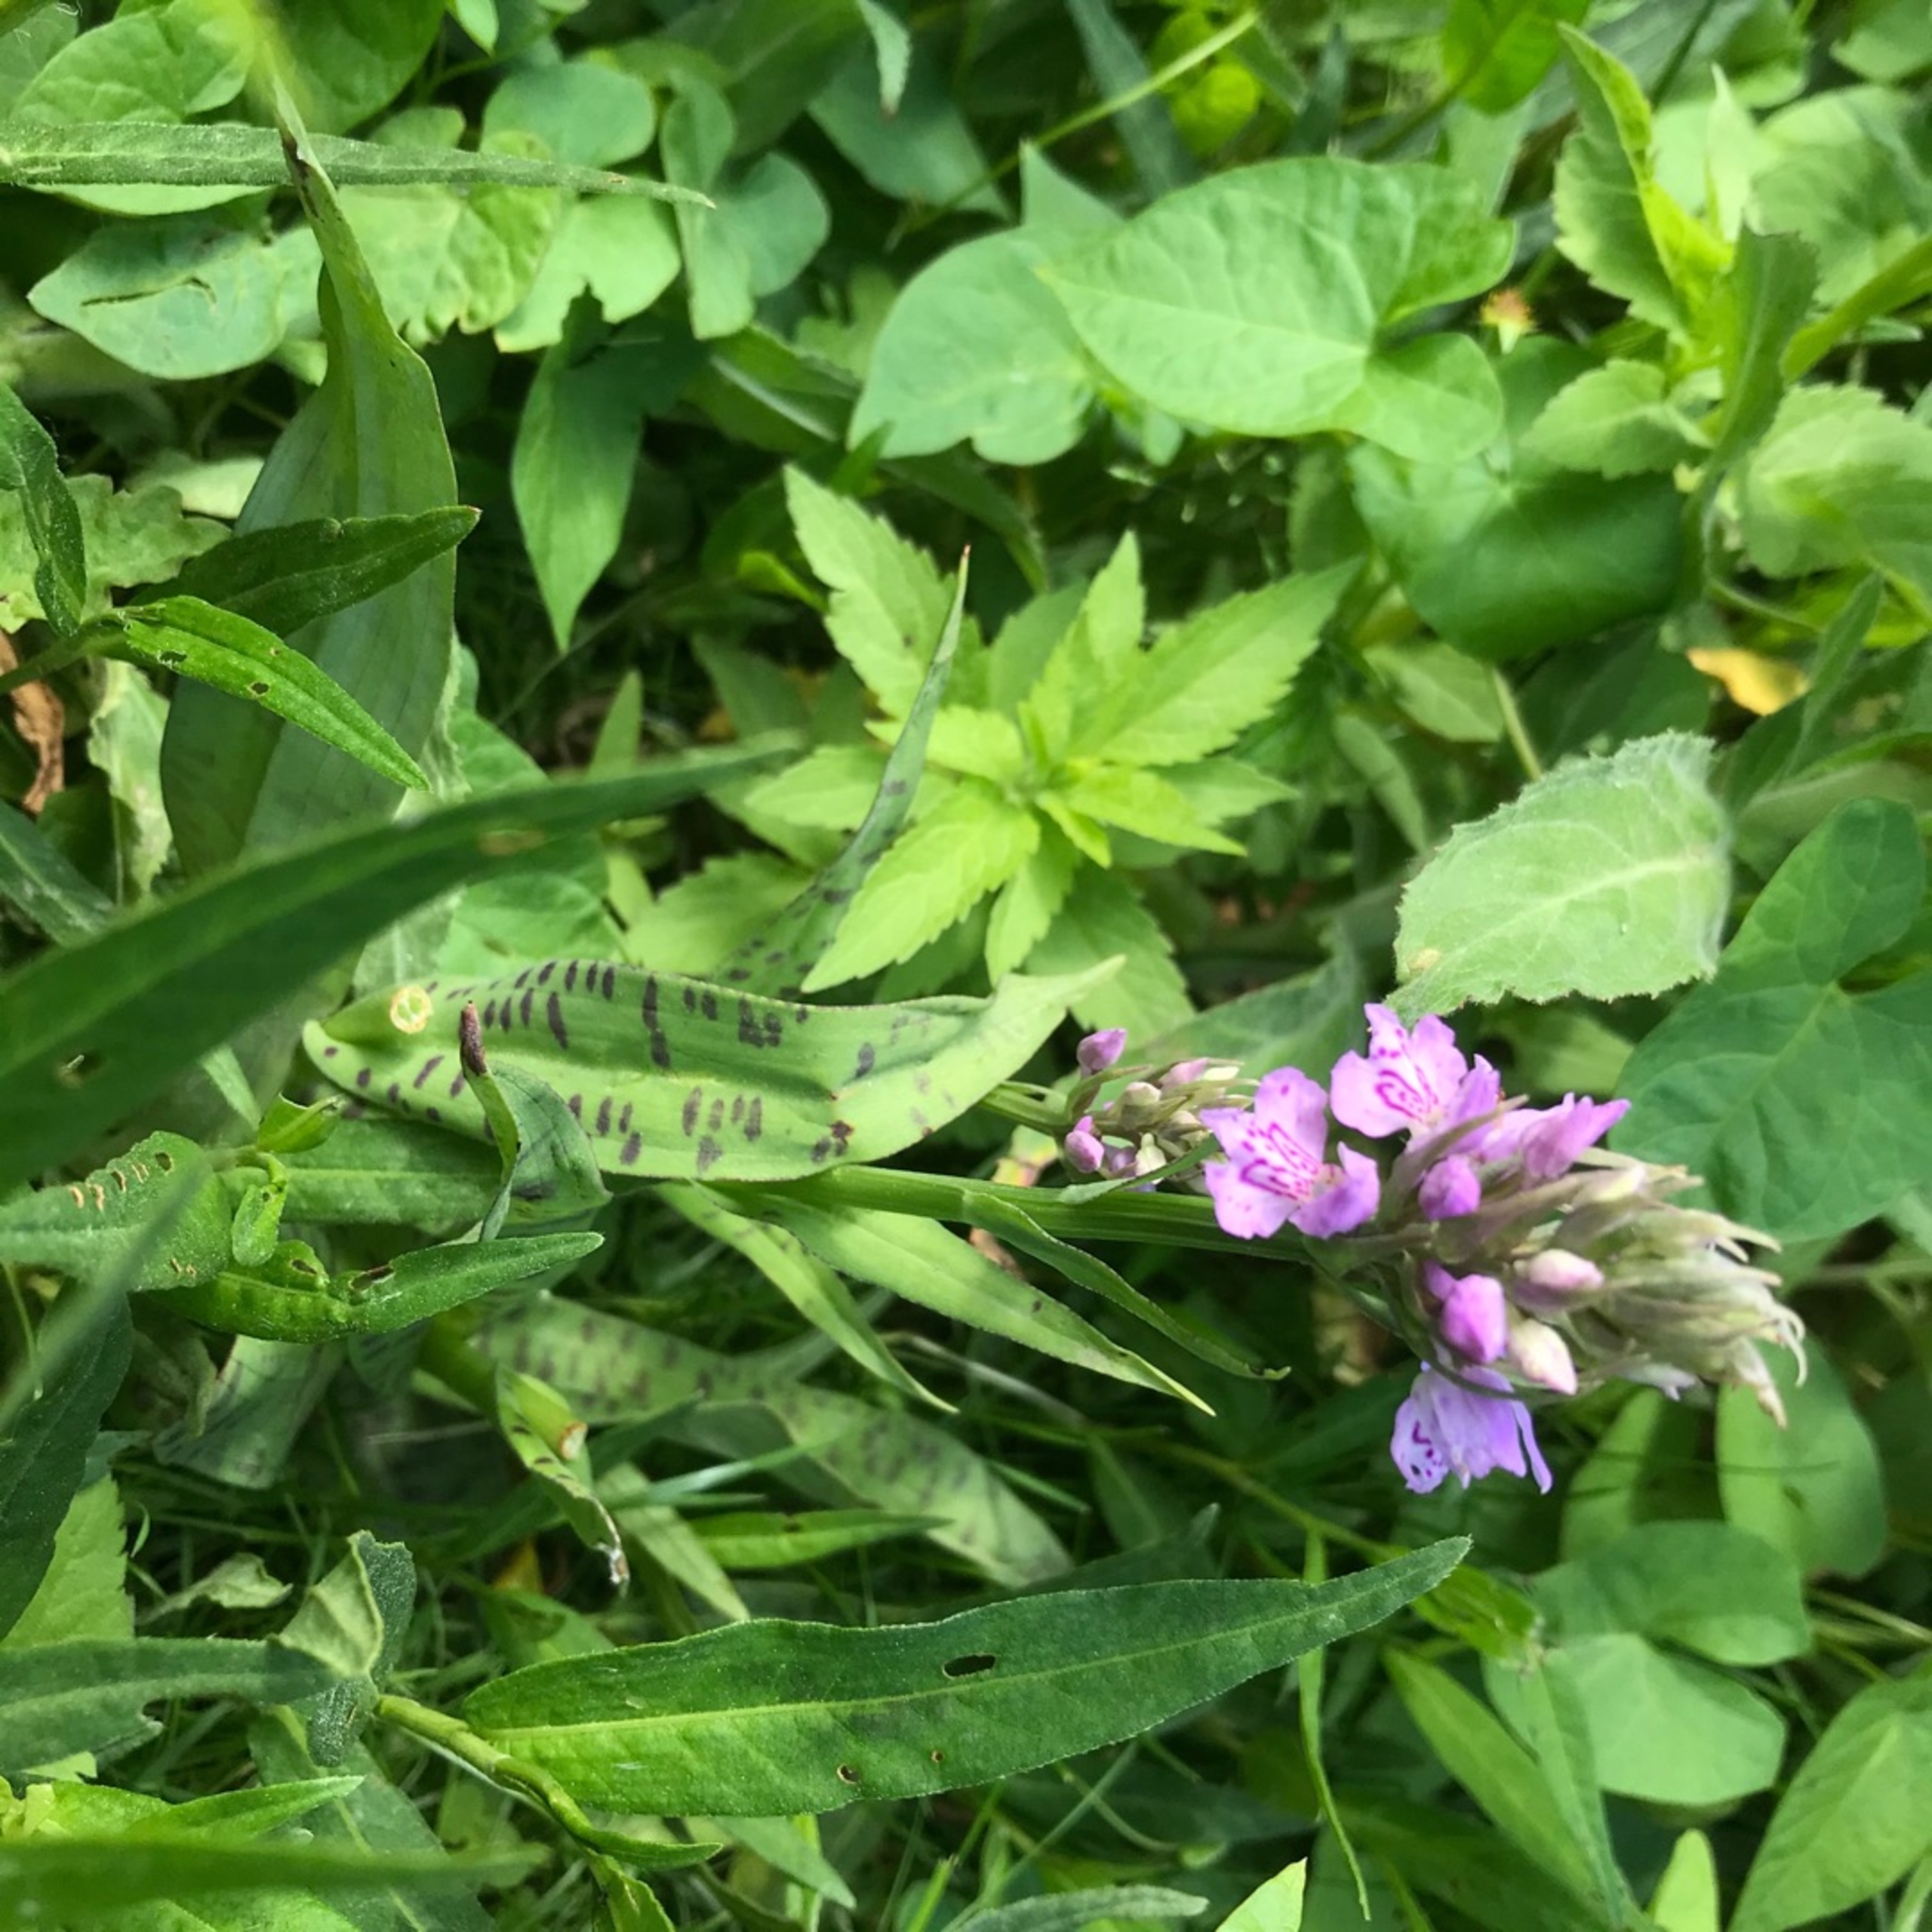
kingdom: Plantae
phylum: Tracheophyta
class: Liliopsida
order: Asparagales
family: Orchidaceae
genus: Dactylorhiza
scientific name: Dactylorhiza maculata
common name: Skov-gøgeurt
